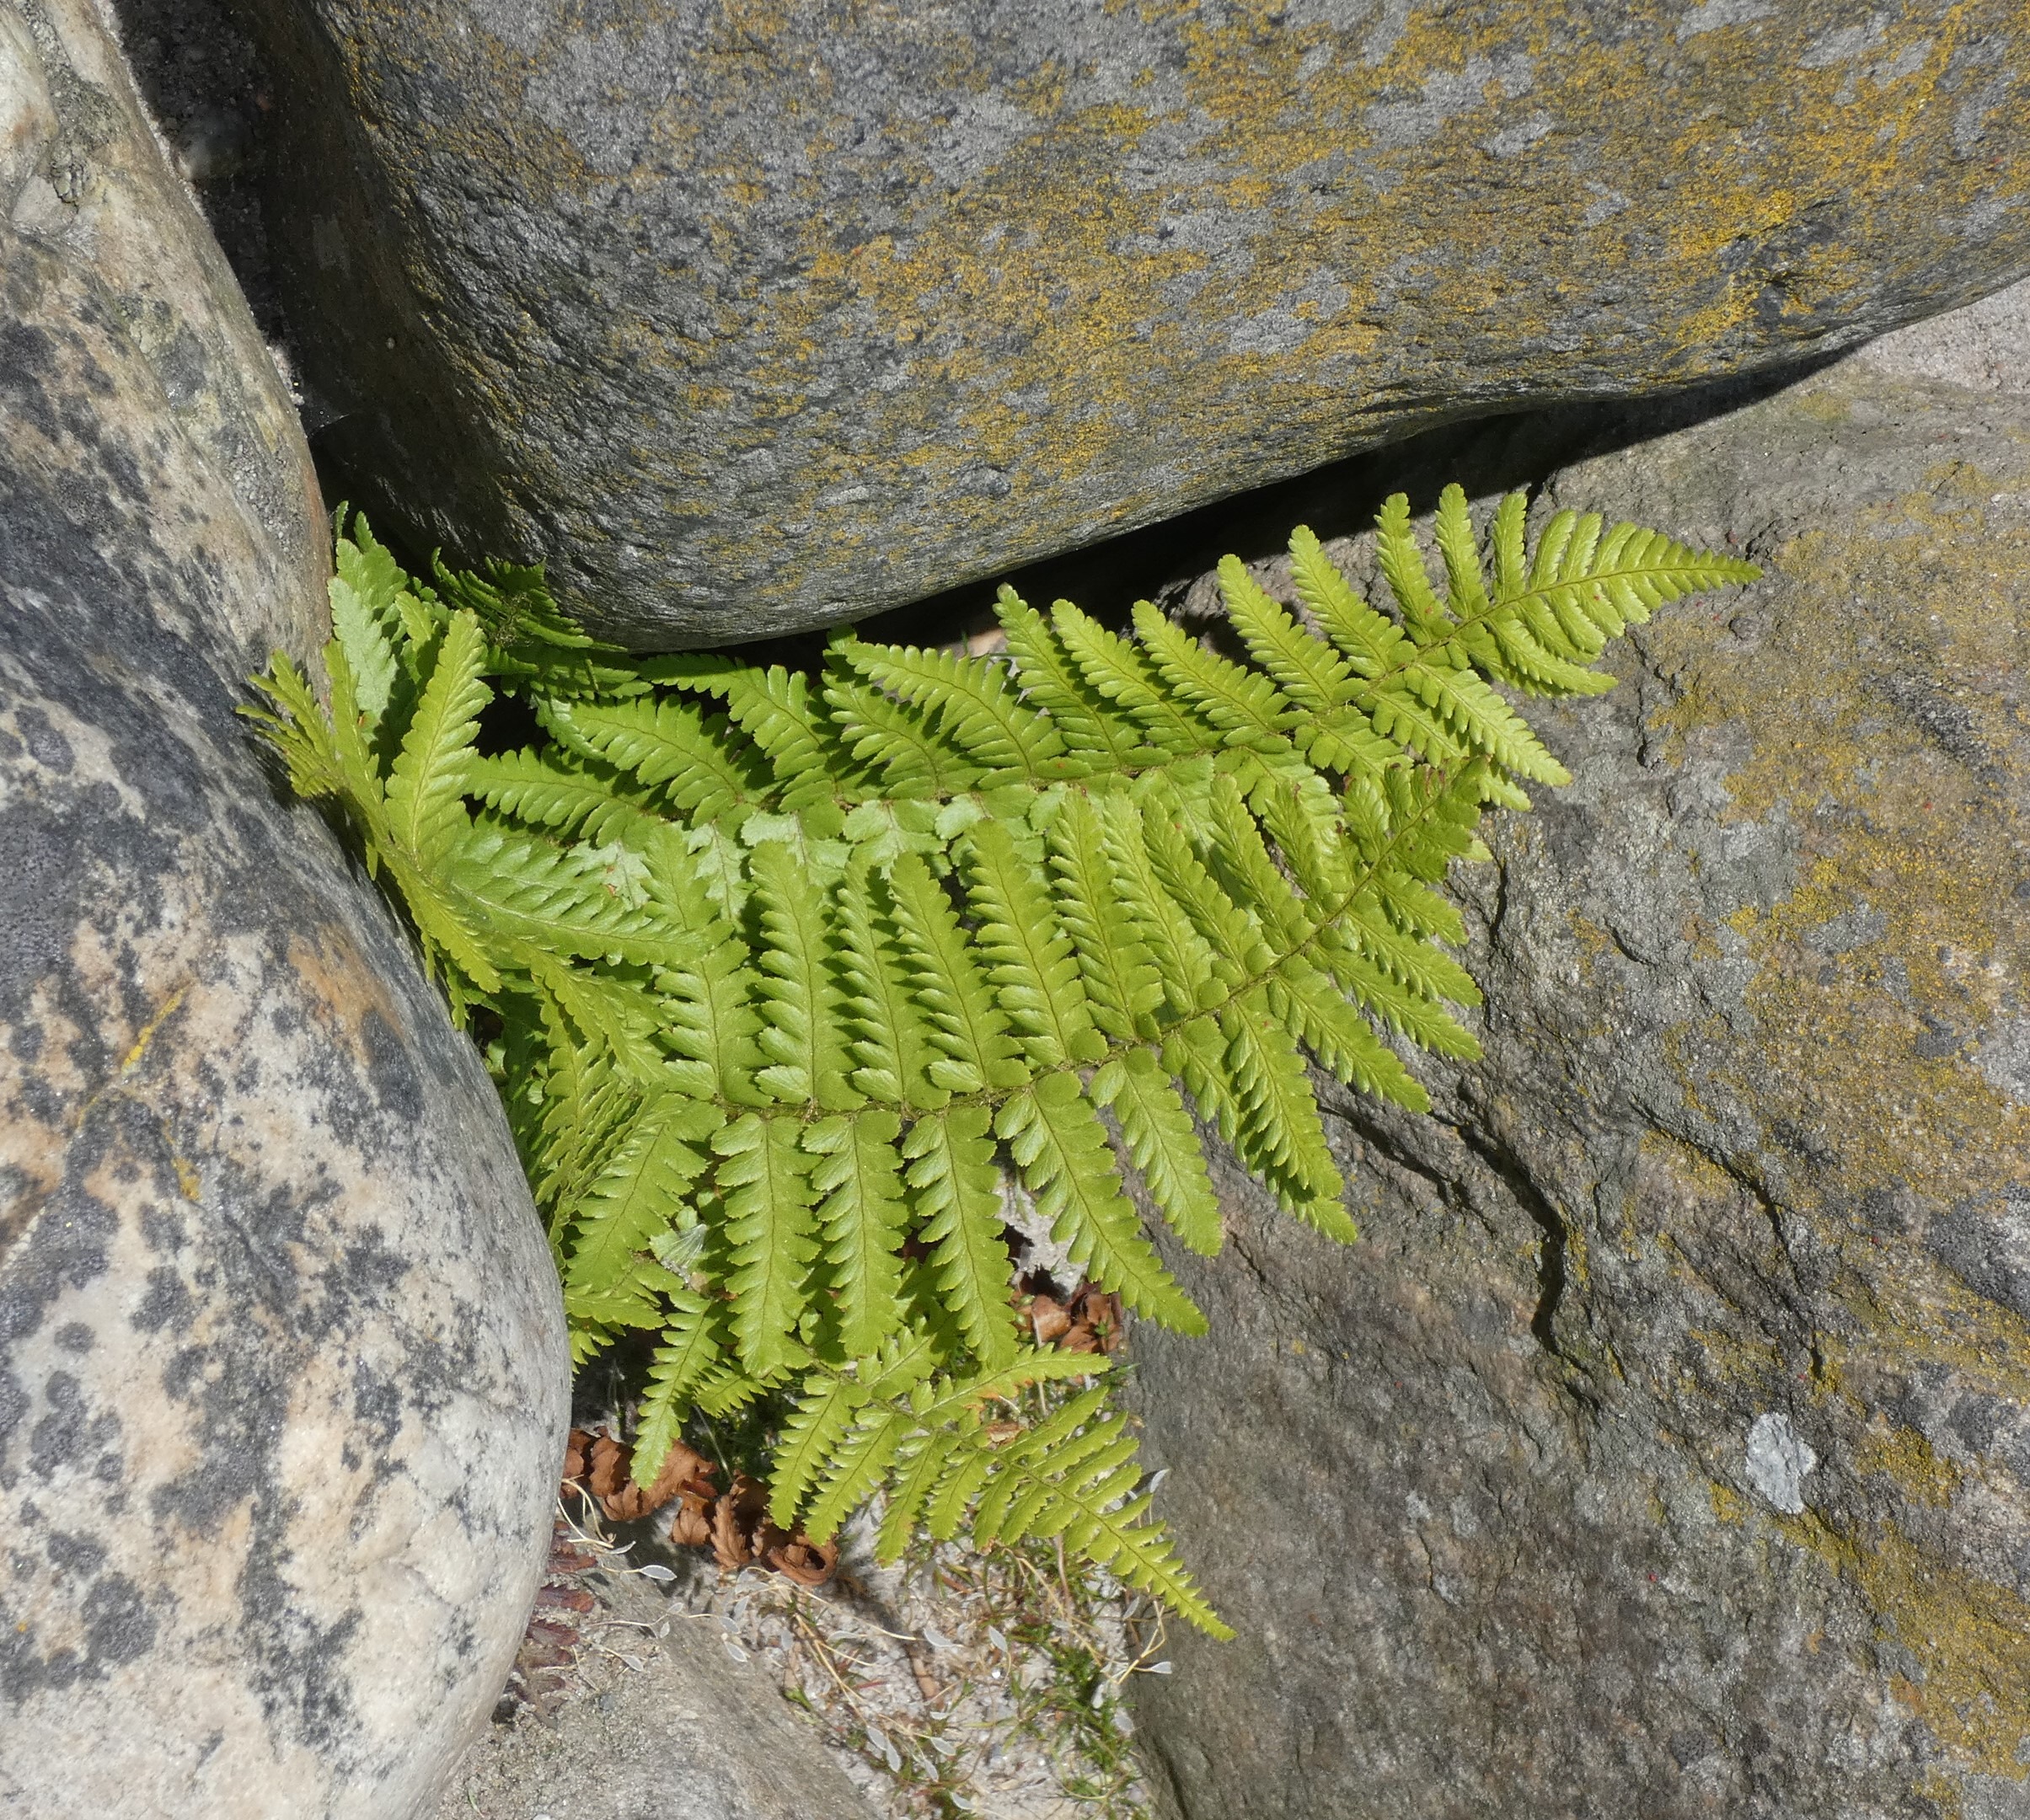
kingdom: Plantae
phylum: Tracheophyta
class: Polypodiopsida
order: Polypodiales
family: Dryopteridaceae
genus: Dryopteris
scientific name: Dryopteris filix-mas
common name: Almindelig mangeløv
